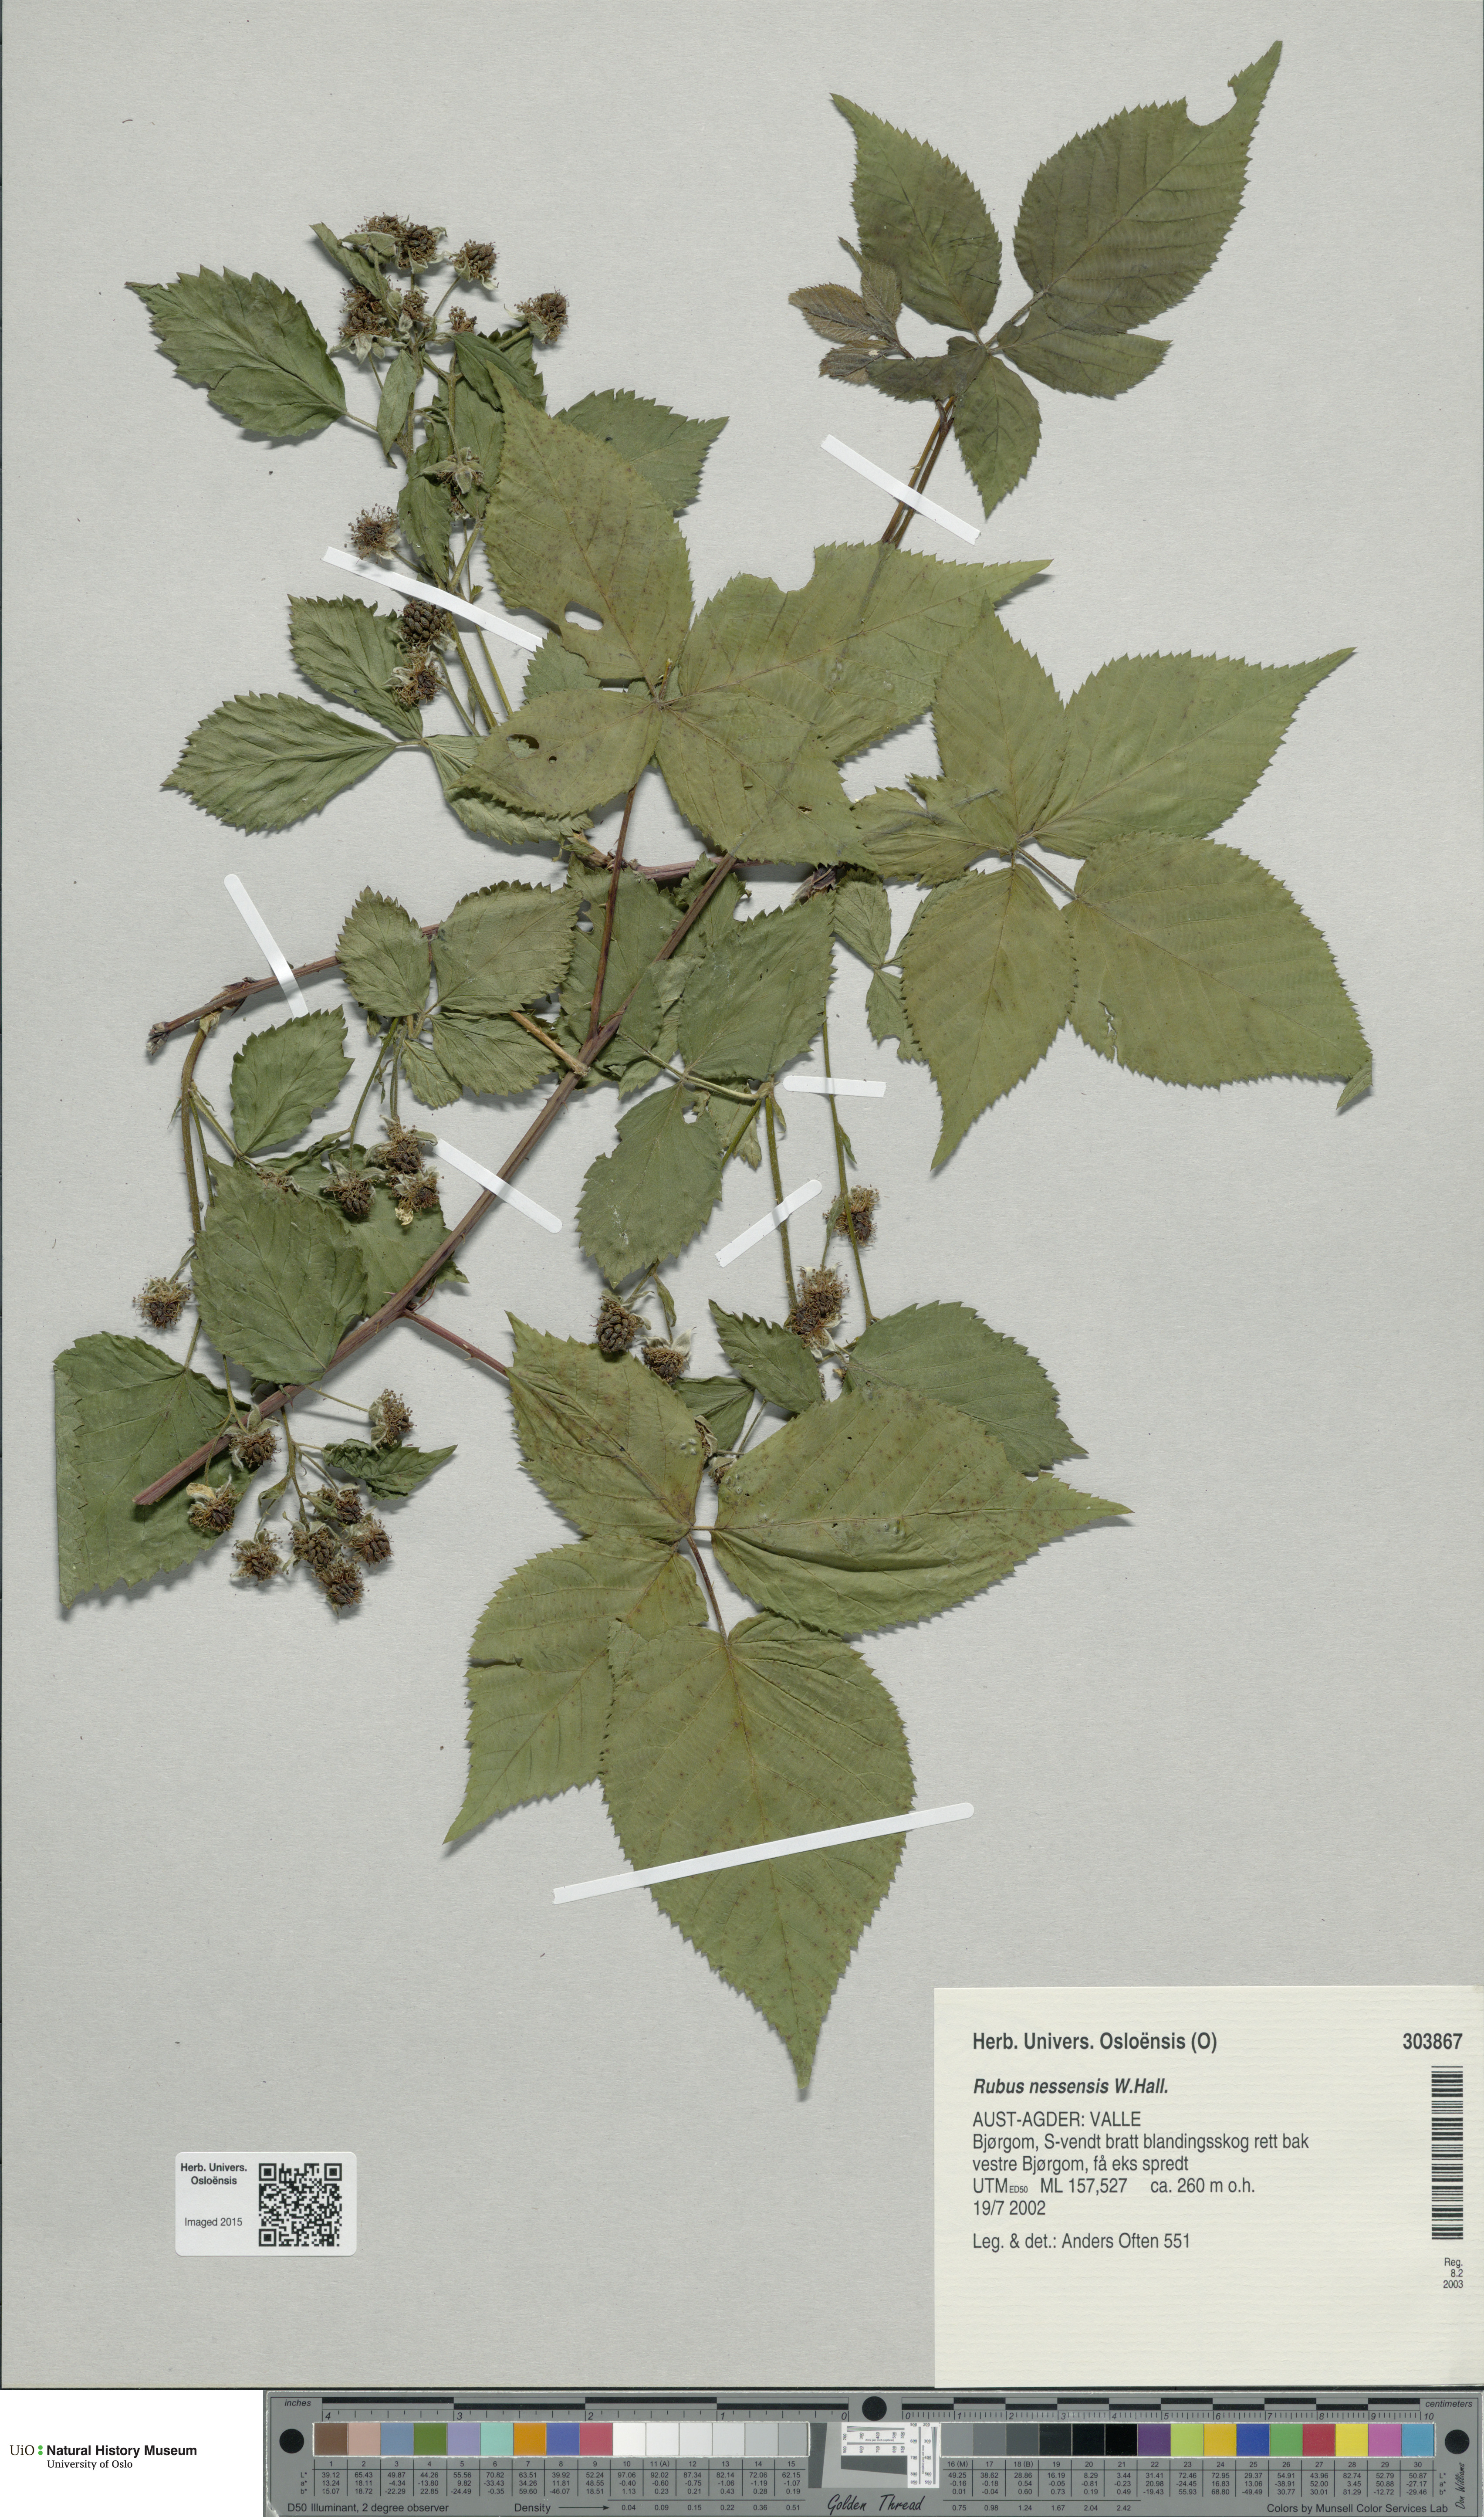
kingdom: Plantae
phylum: Tracheophyta
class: Magnoliopsida
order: Rosales
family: Rosaceae
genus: Rubus
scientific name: Rubus polonicus
